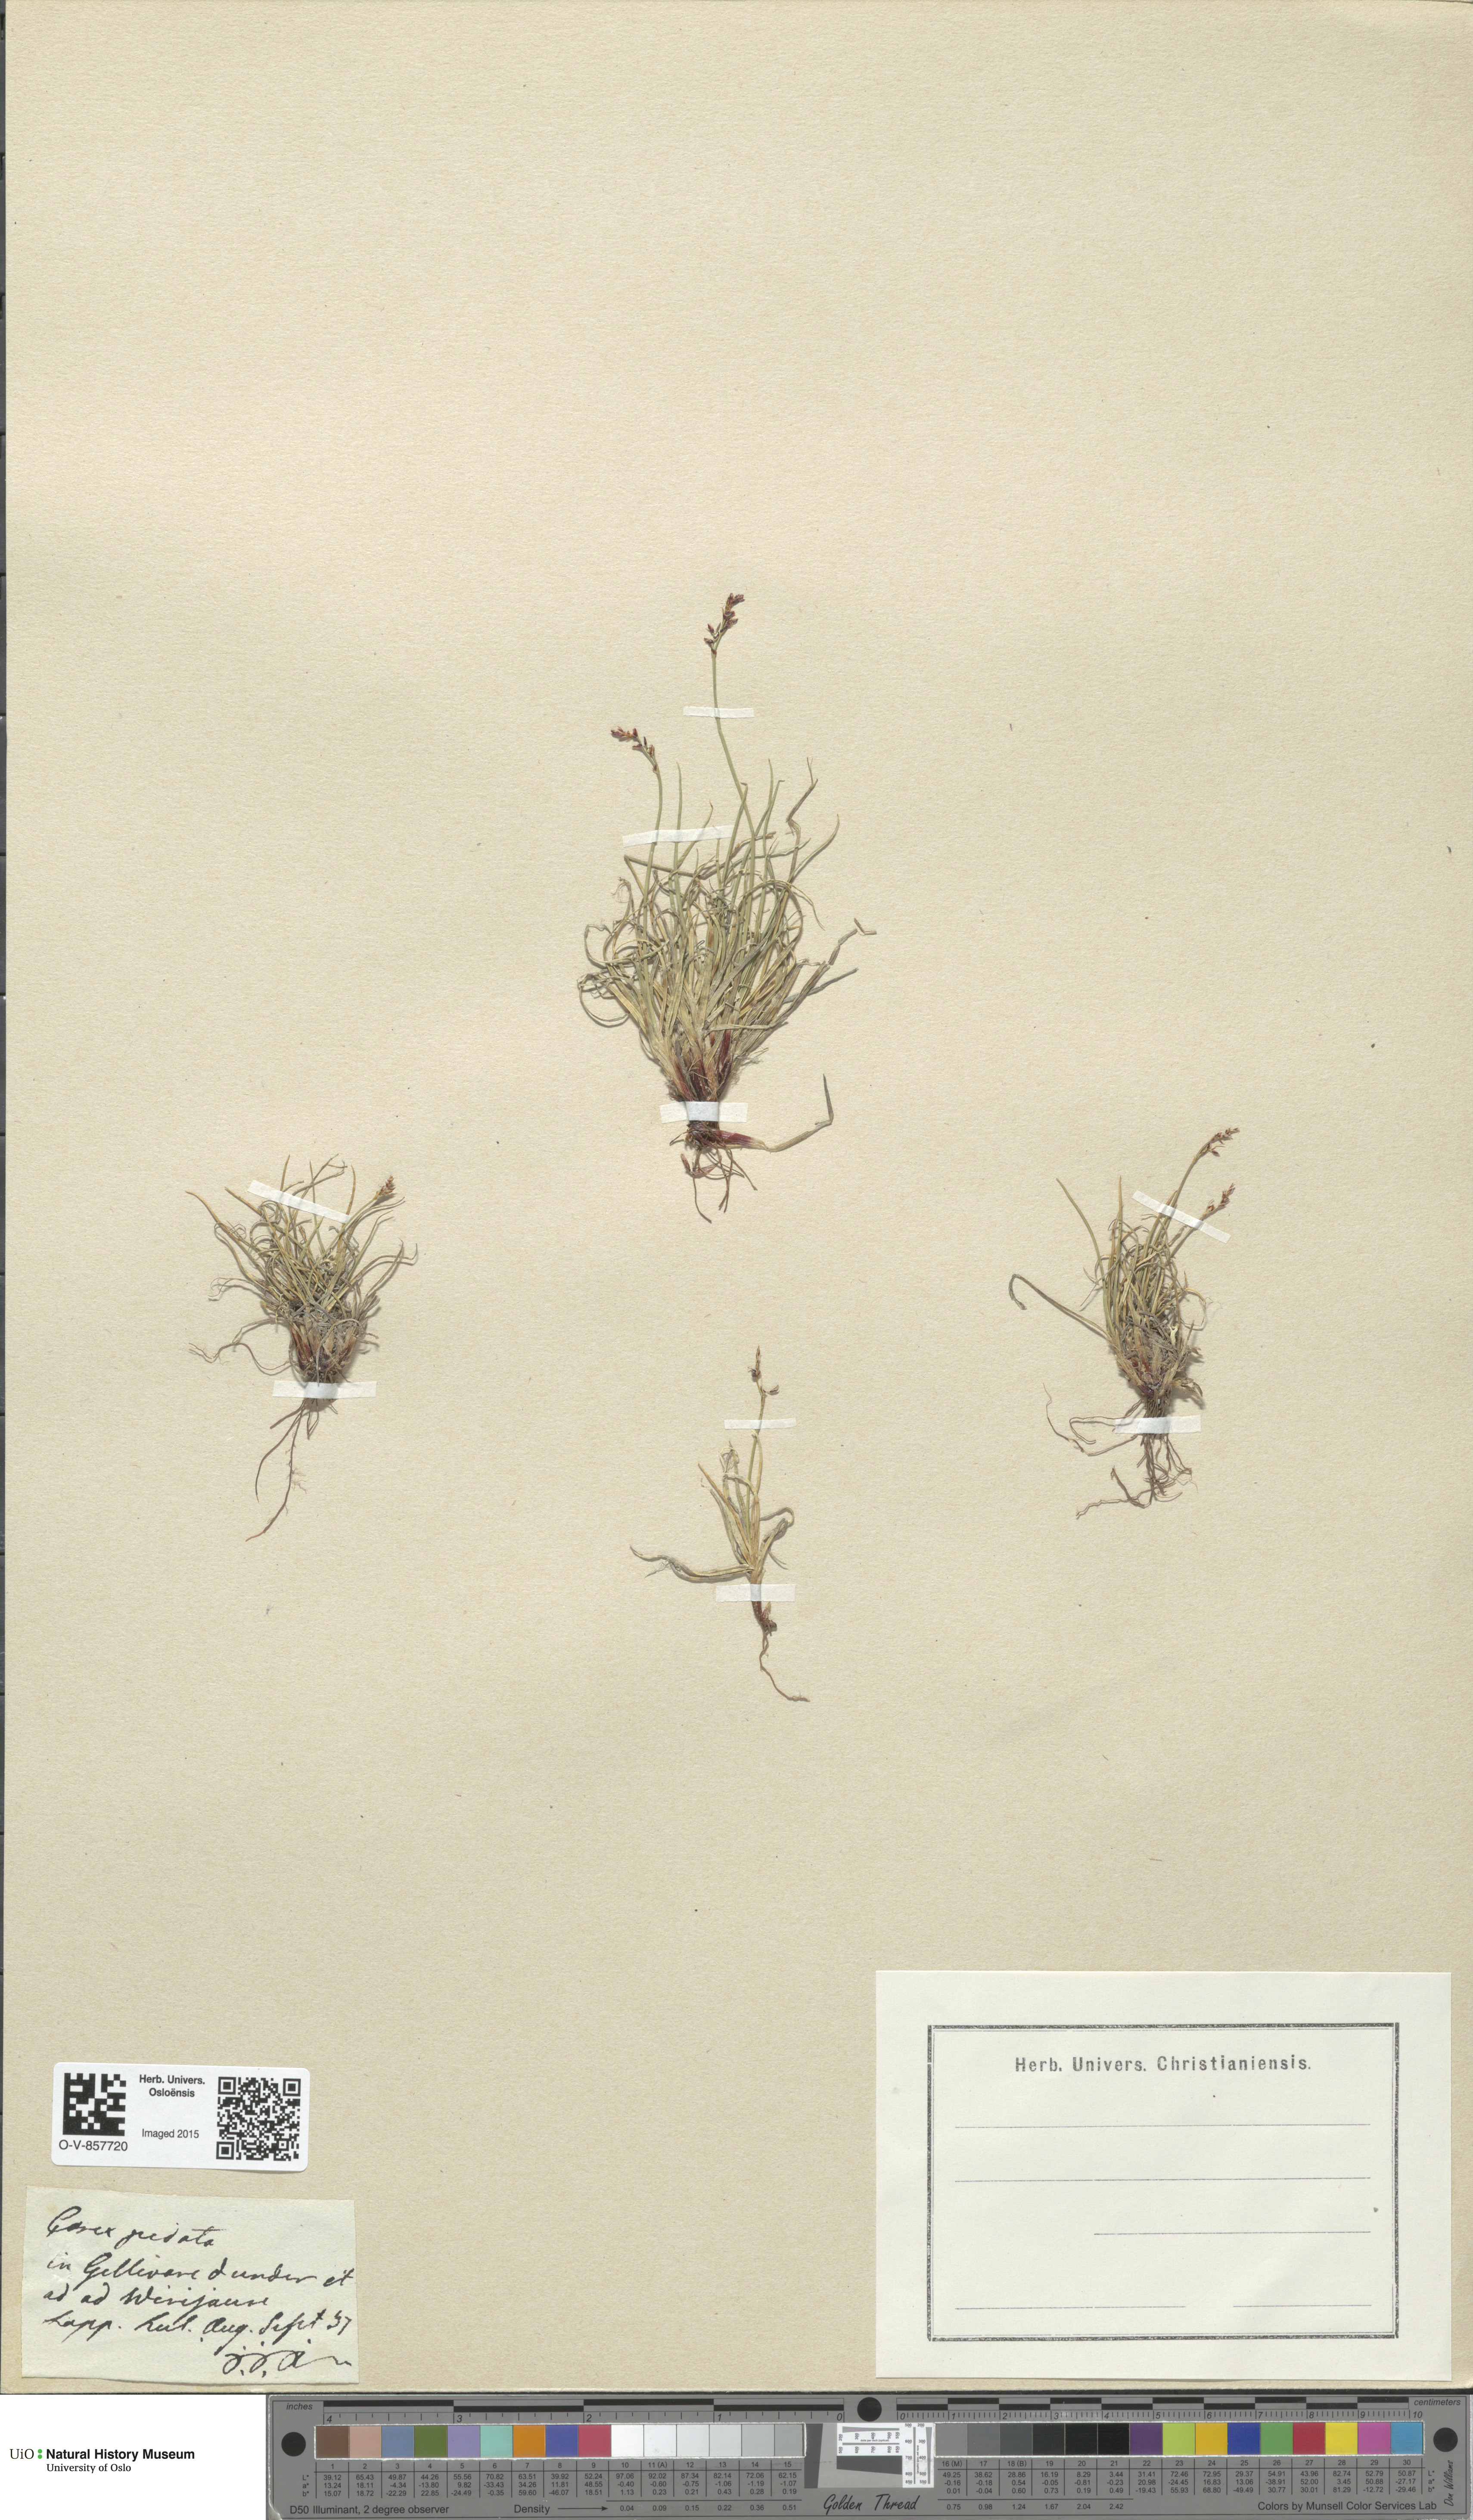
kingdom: Plantae
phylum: Tracheophyta
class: Liliopsida
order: Poales
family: Cyperaceae
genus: Carex
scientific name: Carex glacialis
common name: Newfoundland sedge
